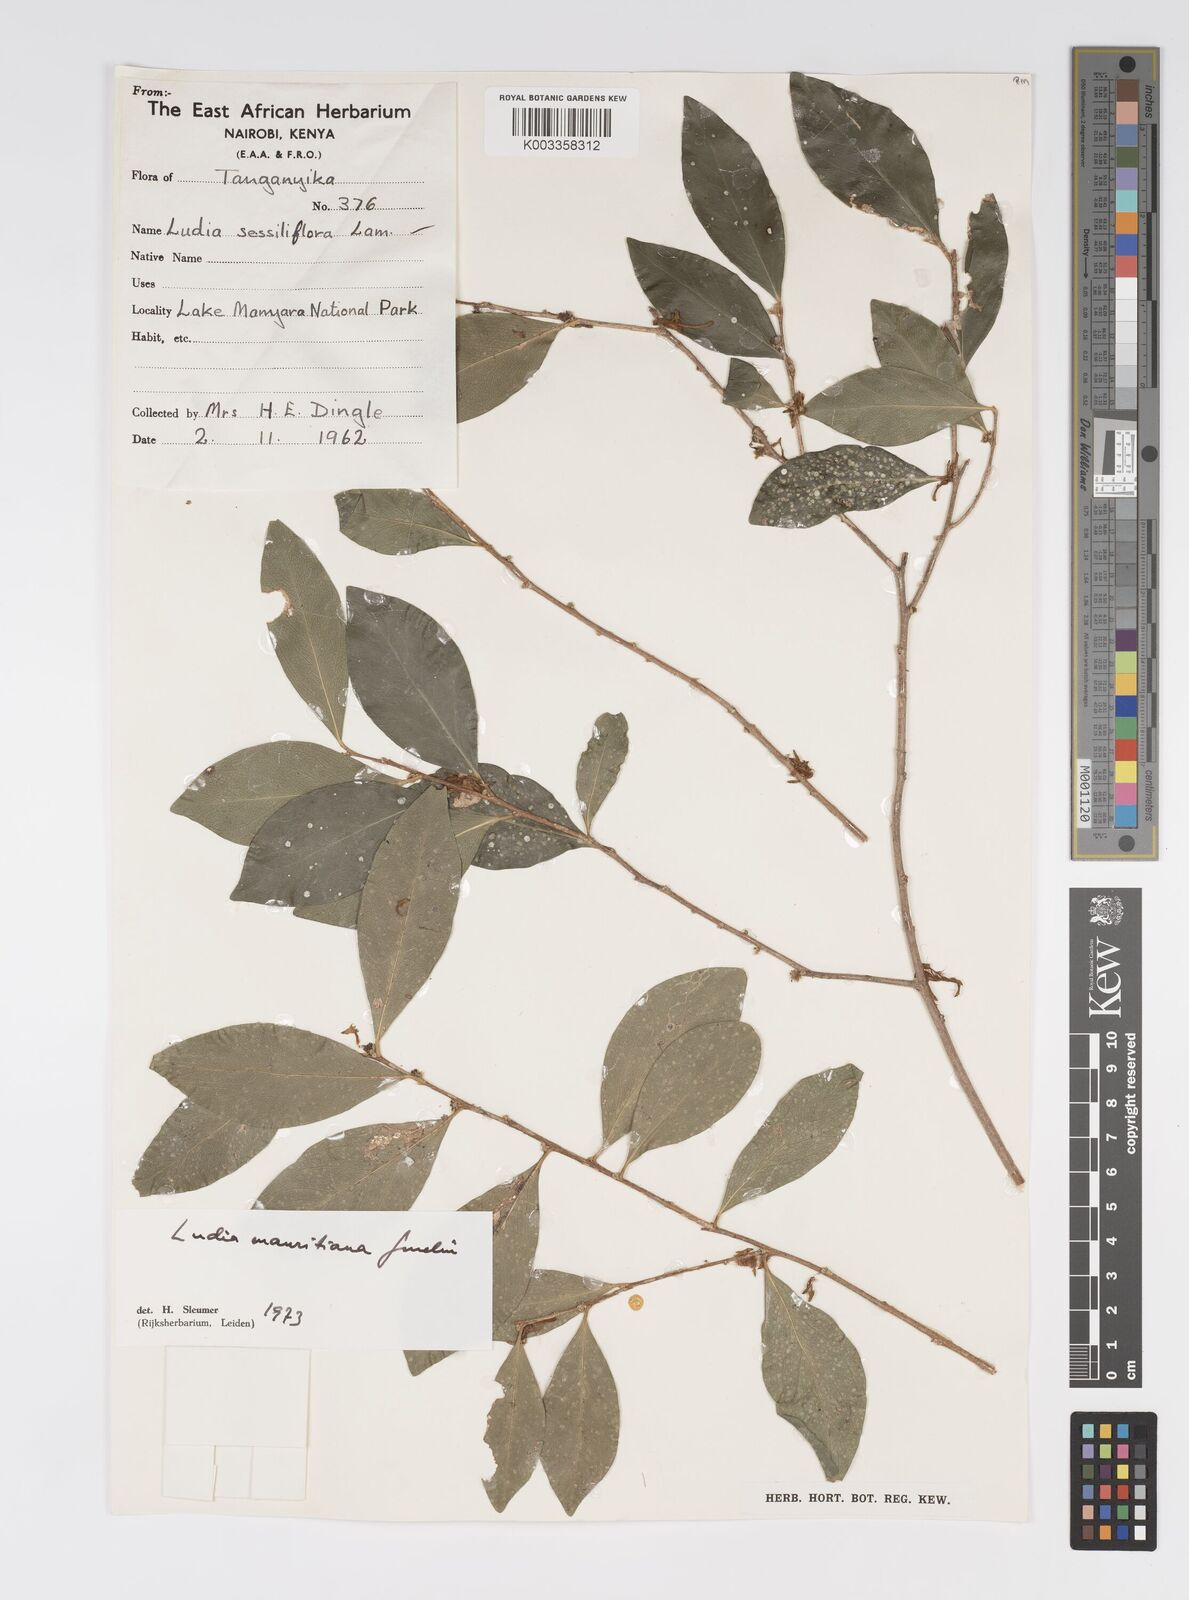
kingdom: Plantae
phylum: Tracheophyta
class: Magnoliopsida
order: Malpighiales
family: Salicaceae
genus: Ludia
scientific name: Ludia mauritiana
